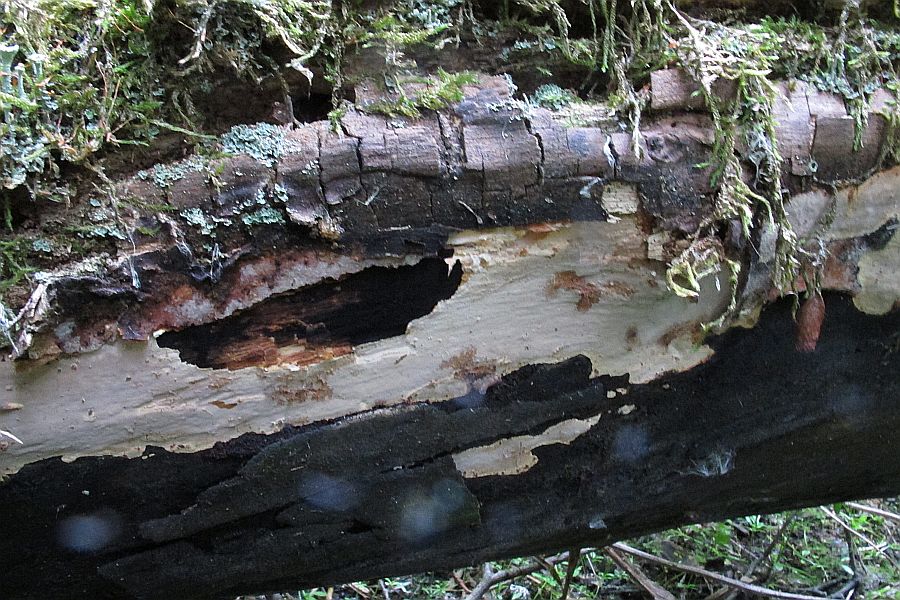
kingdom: Fungi
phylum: Basidiomycota
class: Agaricomycetes
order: Russulales
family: Peniophoraceae
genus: Scytinostroma
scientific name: Scytinostroma hemidichophyticum
